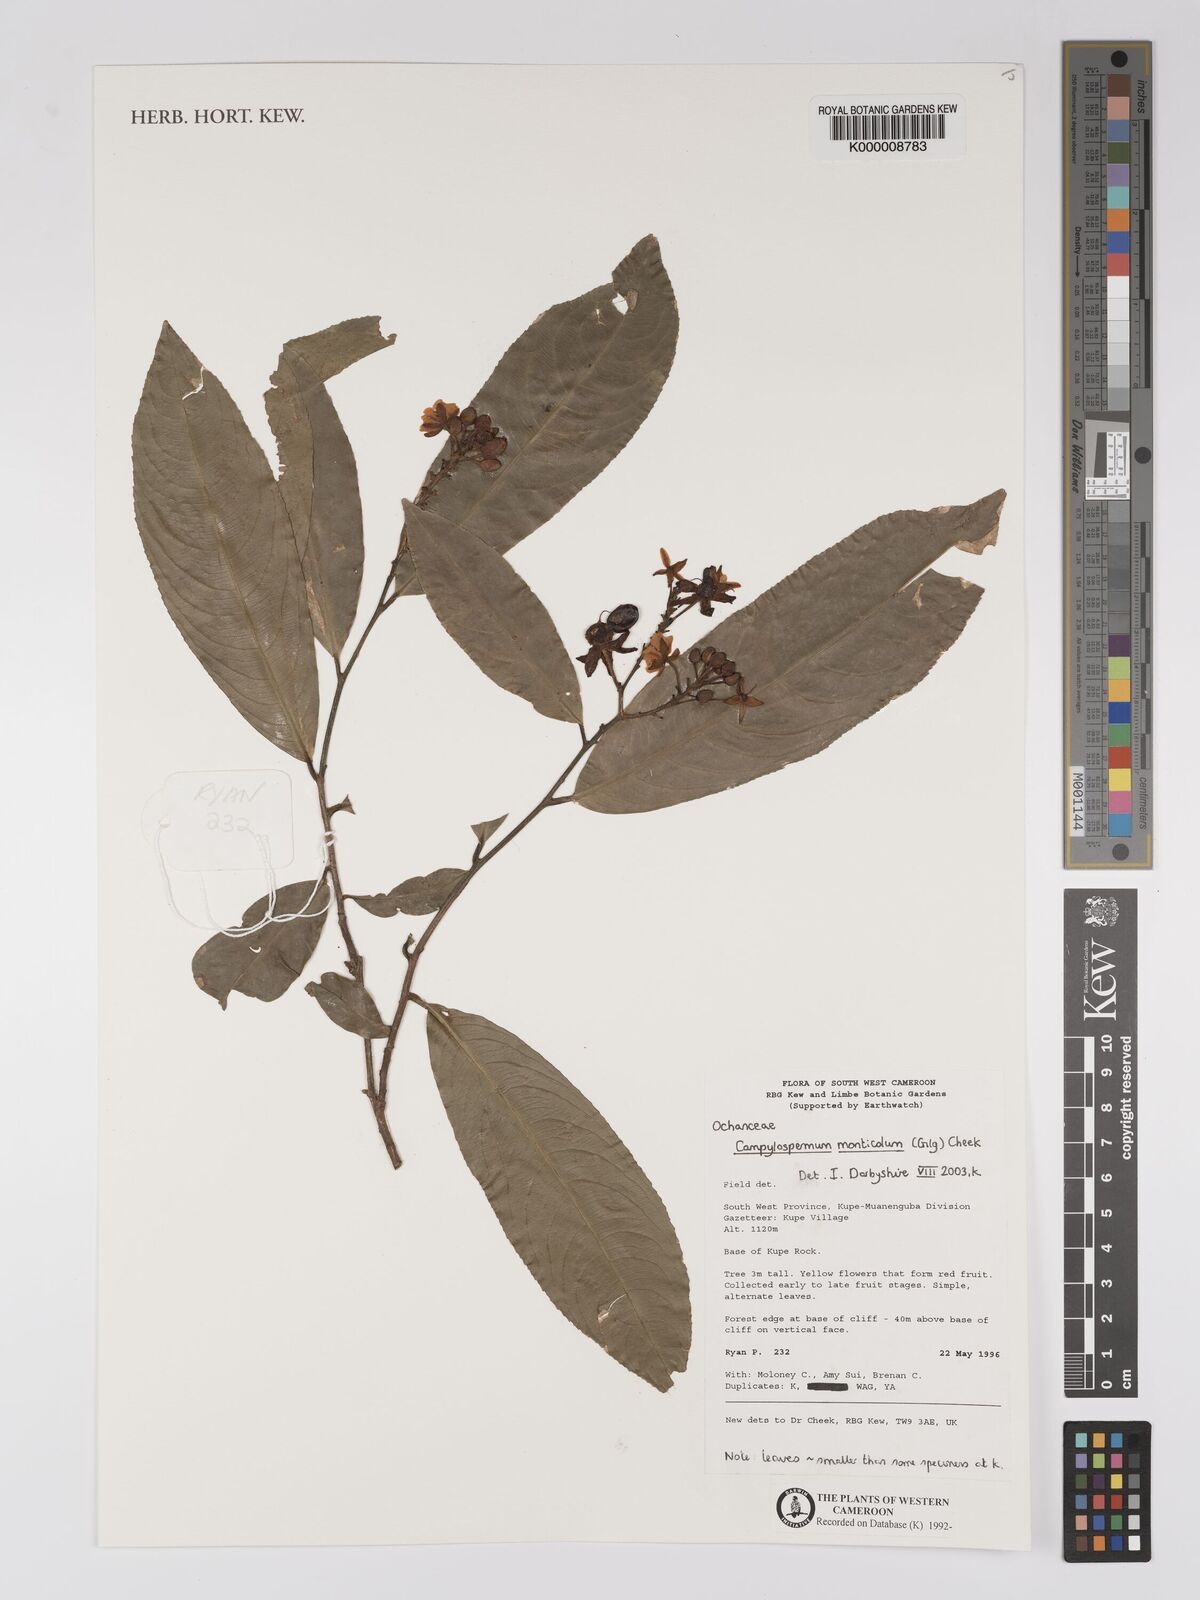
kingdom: Plantae
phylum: Tracheophyta
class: Magnoliopsida
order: Malpighiales
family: Ochnaceae
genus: Campylospermum
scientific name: Campylospermum monticola
